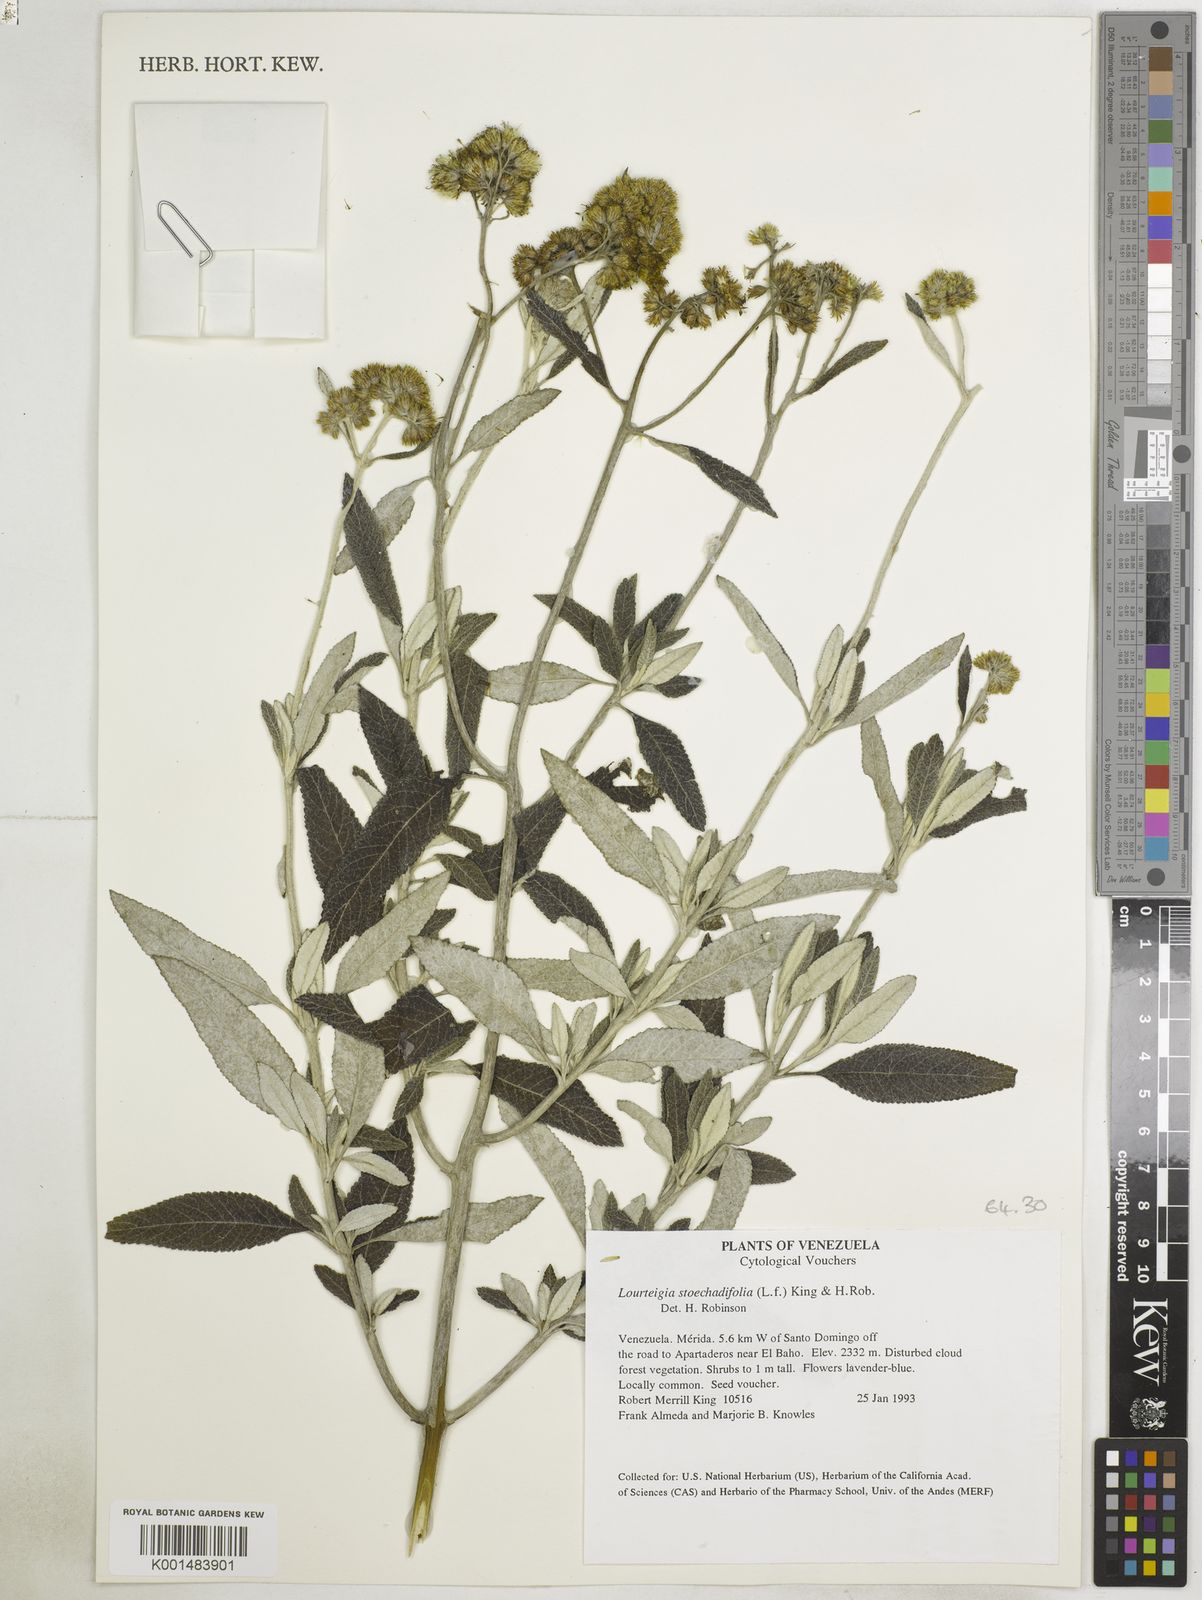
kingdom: Plantae
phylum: Tracheophyta
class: Magnoliopsida
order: Asterales
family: Asteraceae
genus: Lourteigia
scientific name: Lourteigia stoechadifolia
